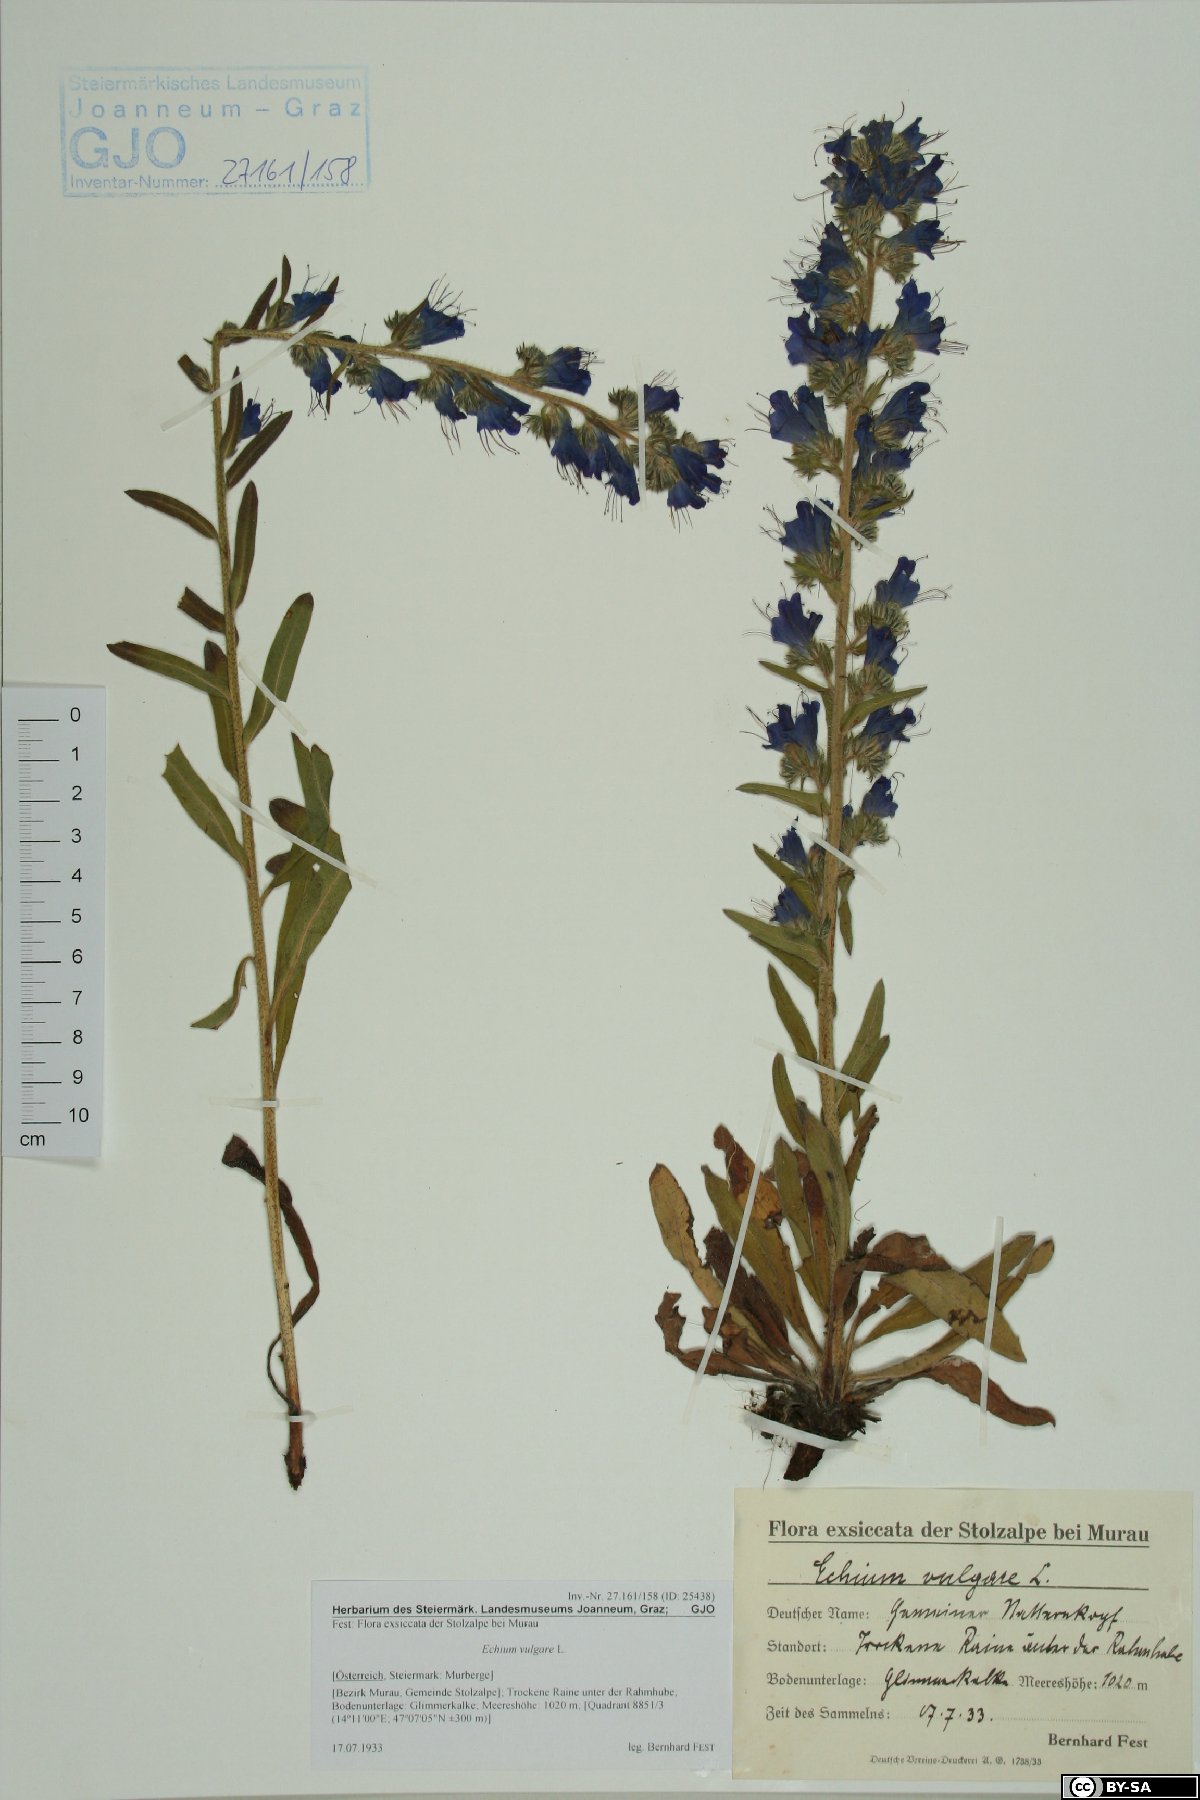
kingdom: Plantae
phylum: Tracheophyta
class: Magnoliopsida
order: Boraginales
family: Boraginaceae
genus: Echium
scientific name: Echium vulgare
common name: Common viper's bugloss
